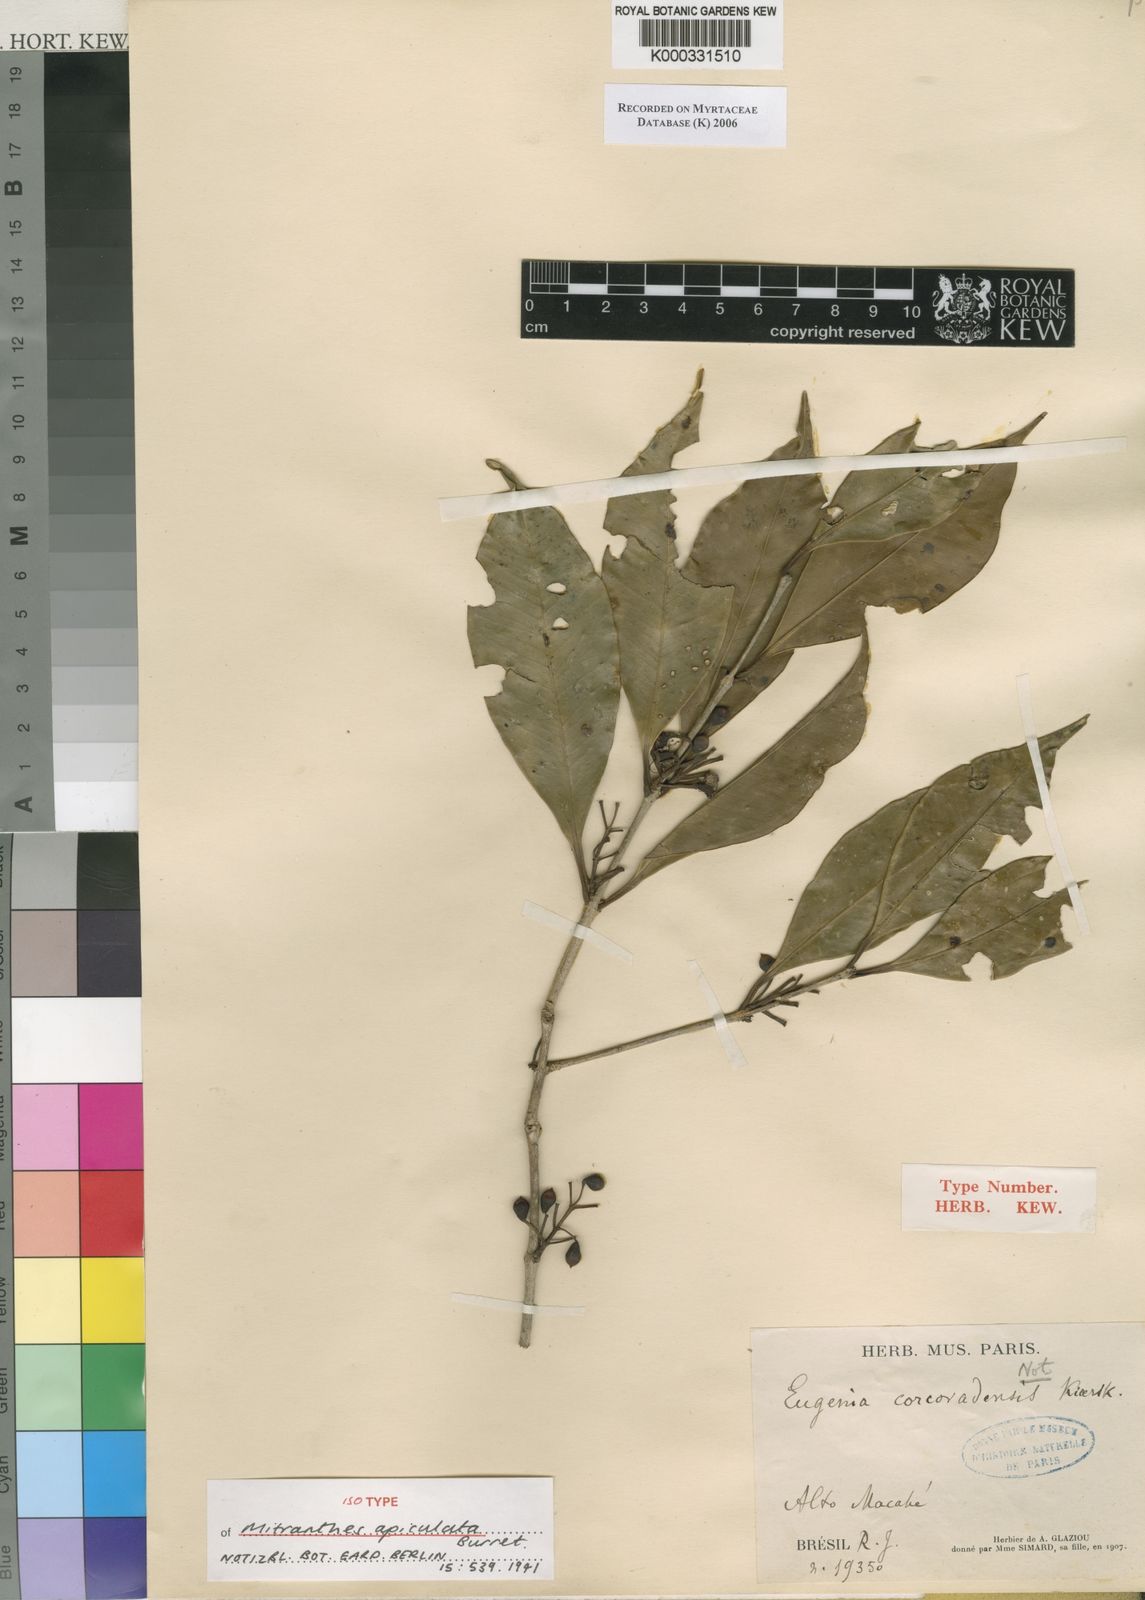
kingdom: Plantae
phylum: Tracheophyta
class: Magnoliopsida
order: Myrtales
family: Myrtaceae
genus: Eugenia
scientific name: Eugenia corcovadensis
